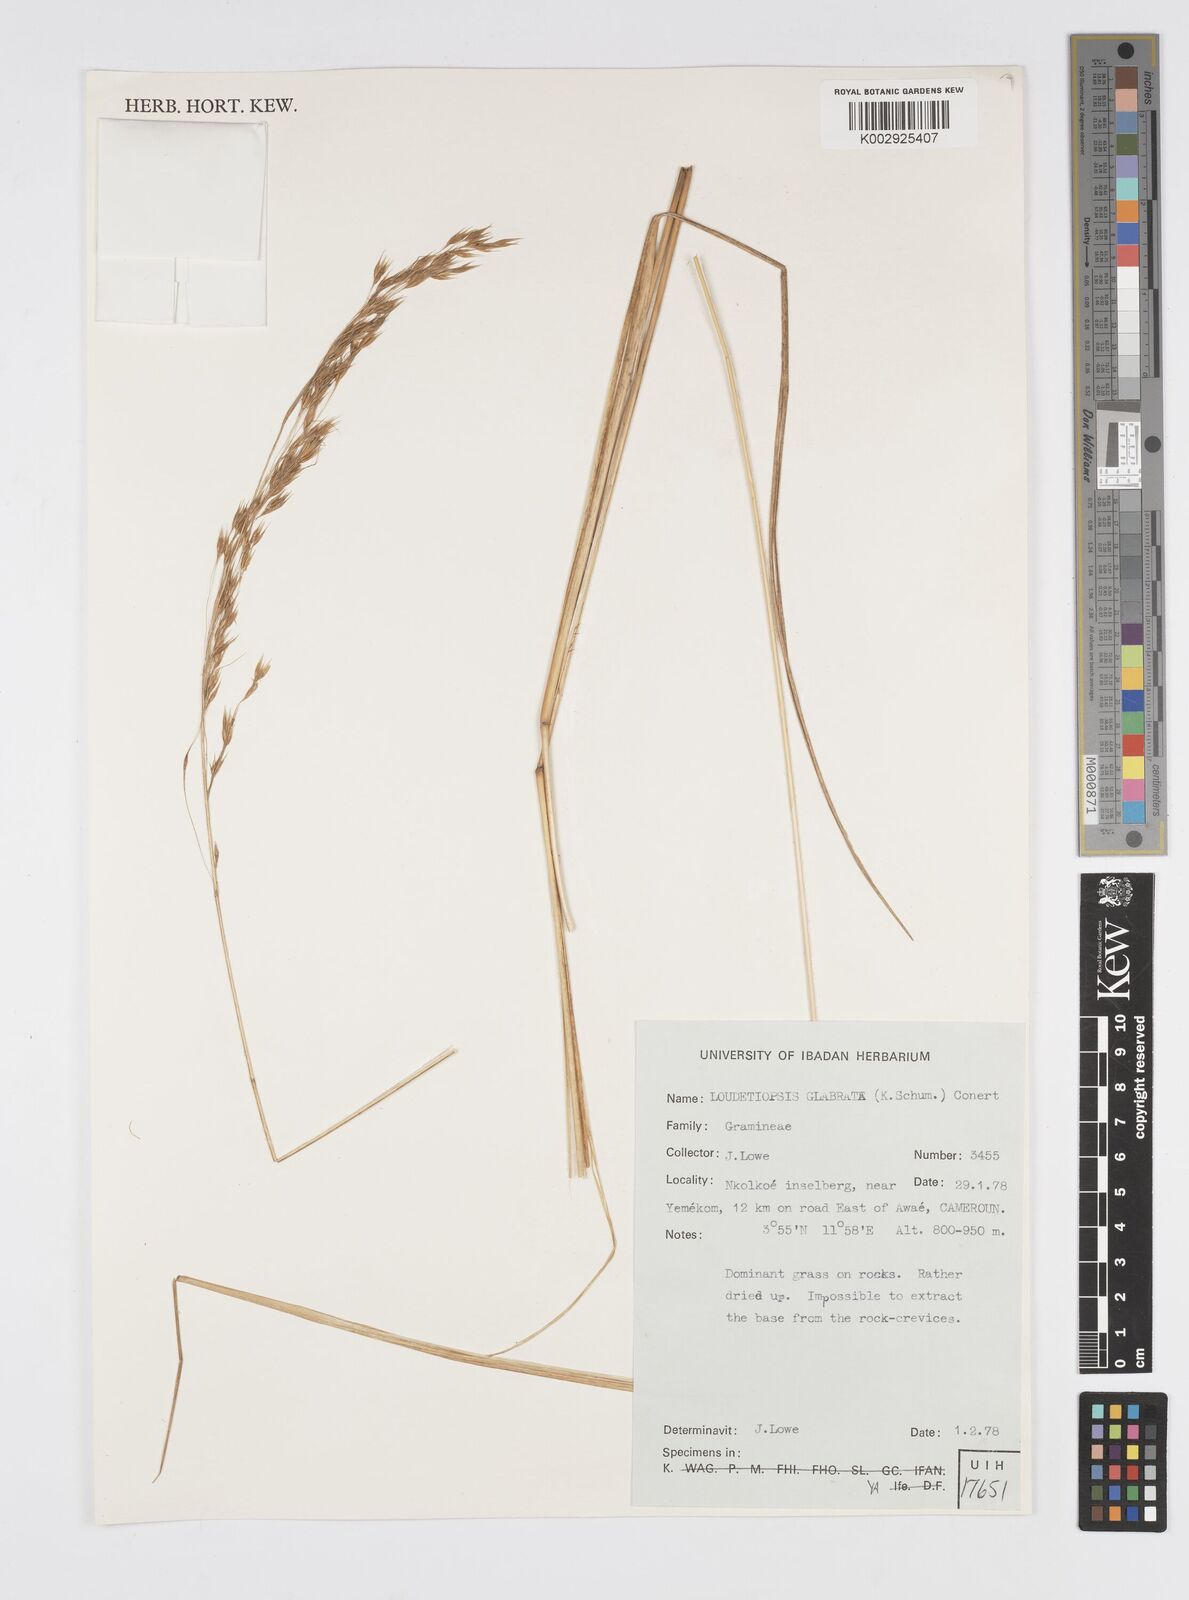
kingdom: Plantae
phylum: Tracheophyta
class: Liliopsida
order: Poales
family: Poaceae
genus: Loudetiopsis
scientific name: Loudetiopsis glabrata
